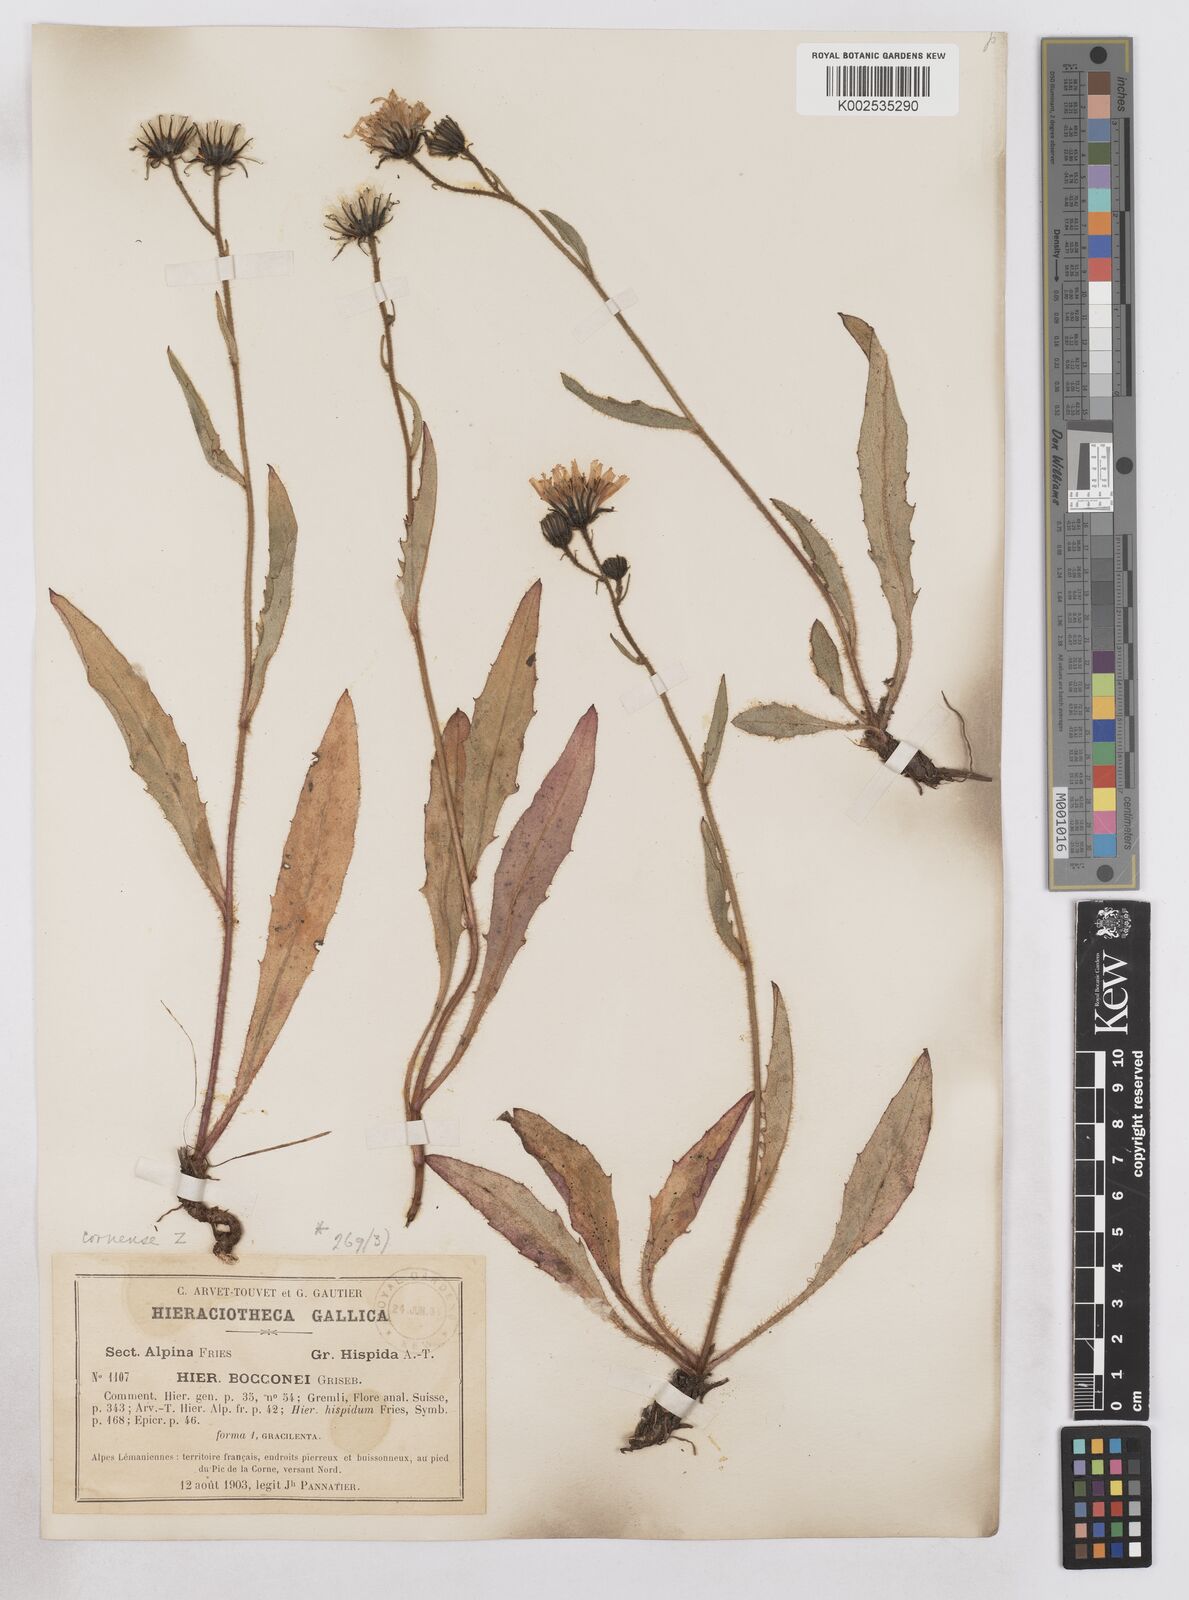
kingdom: Plantae
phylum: Tracheophyta
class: Magnoliopsida
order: Asterales
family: Asteraceae
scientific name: Asteraceae
